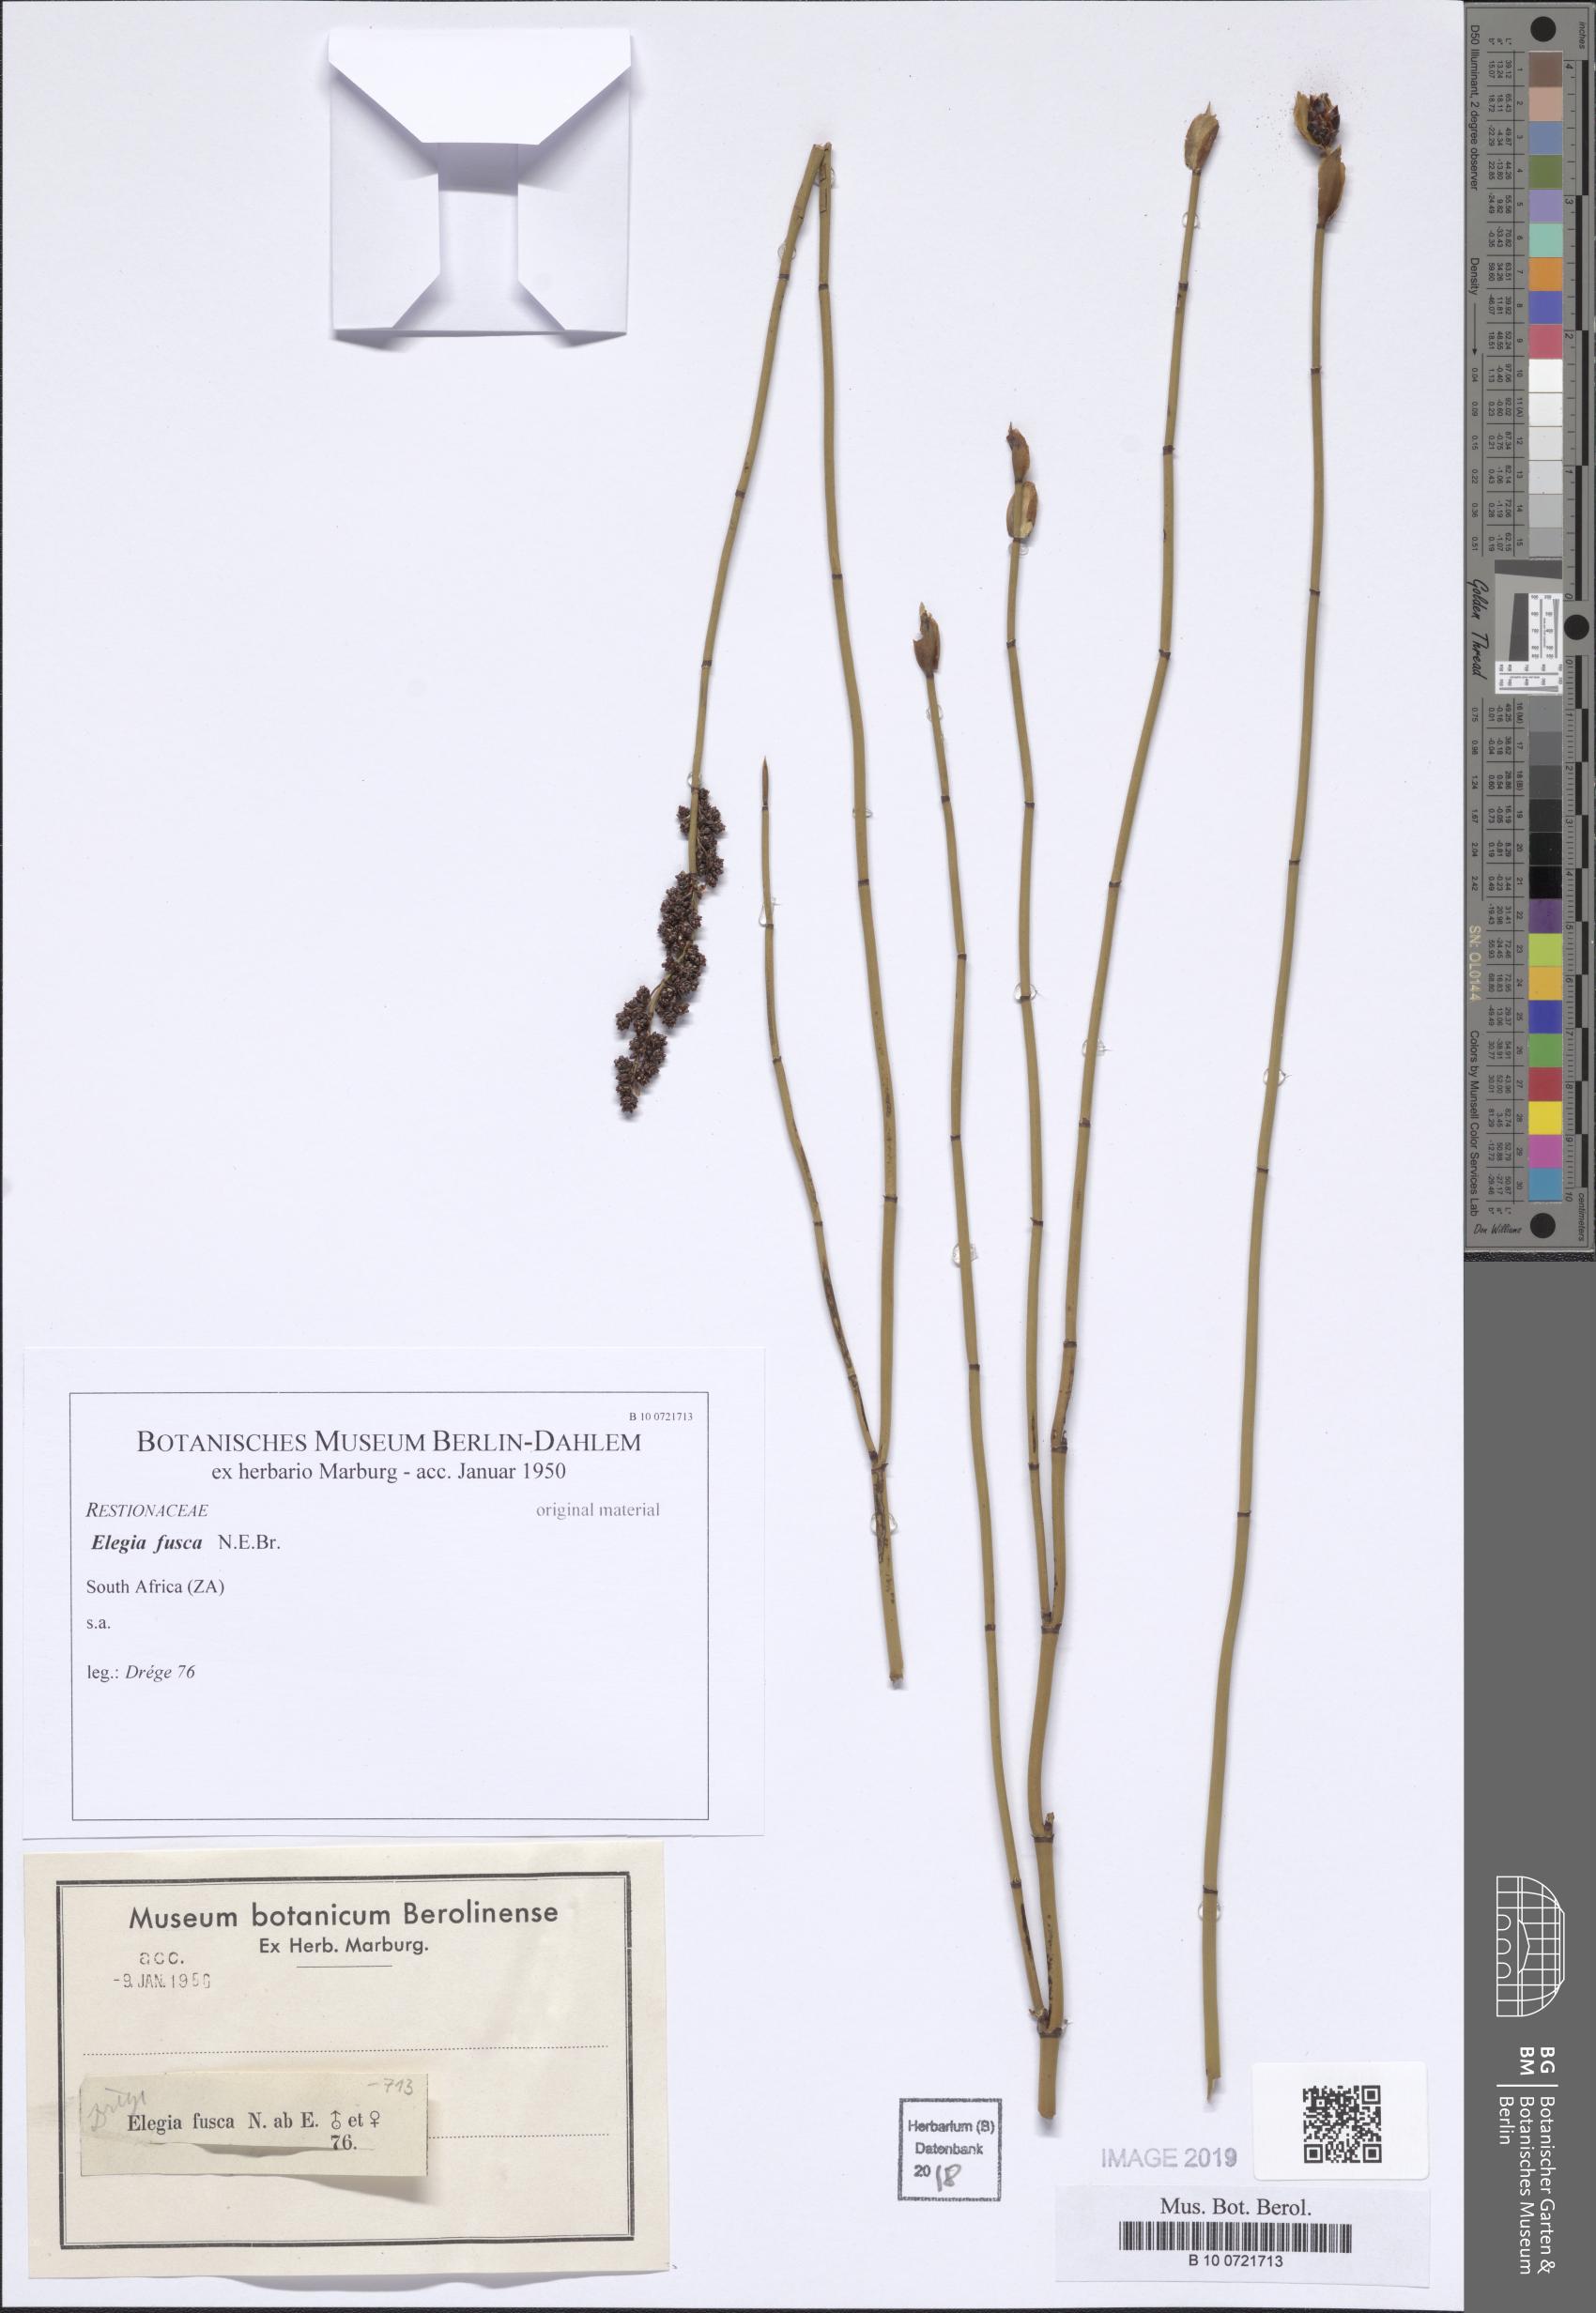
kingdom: Plantae
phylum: Tracheophyta
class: Liliopsida
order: Poales
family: Restionaceae
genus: Elegia
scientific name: Elegia racemosa
